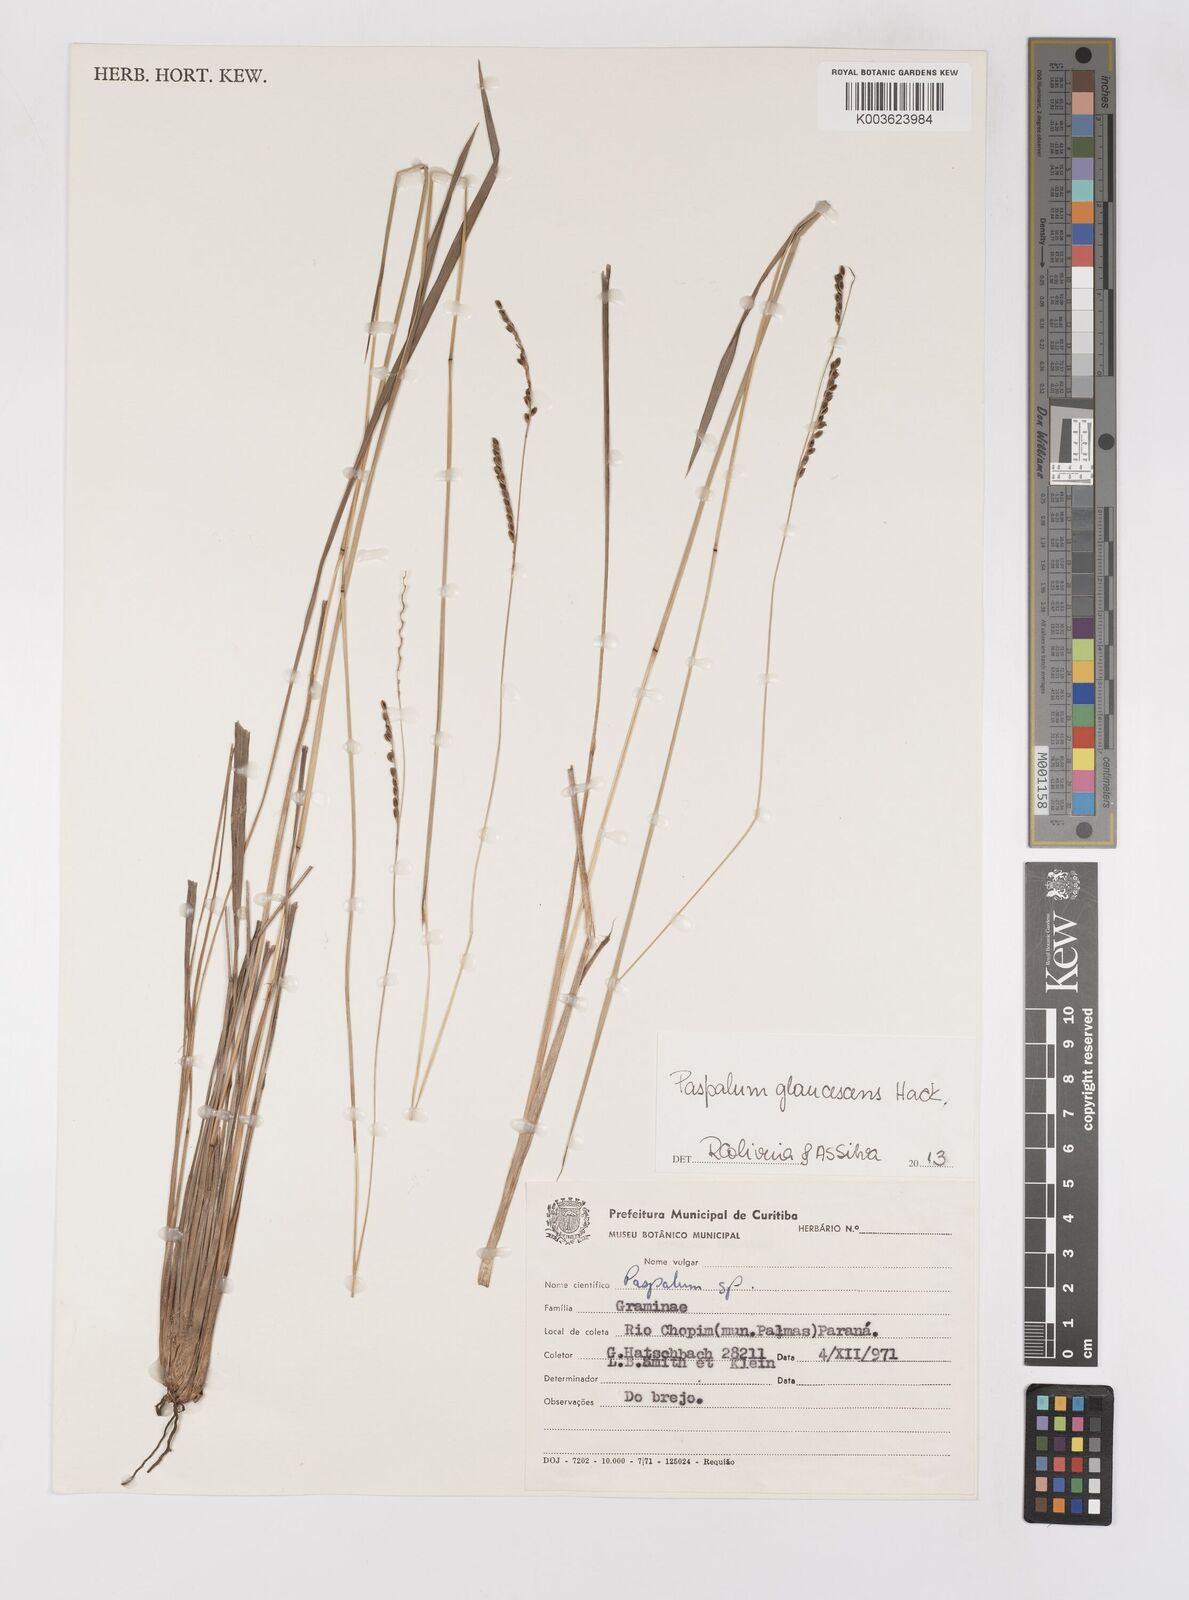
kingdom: Plantae
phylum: Tracheophyta
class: Liliopsida
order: Poales
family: Poaceae
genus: Paspalum
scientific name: Paspalum glaucescens
